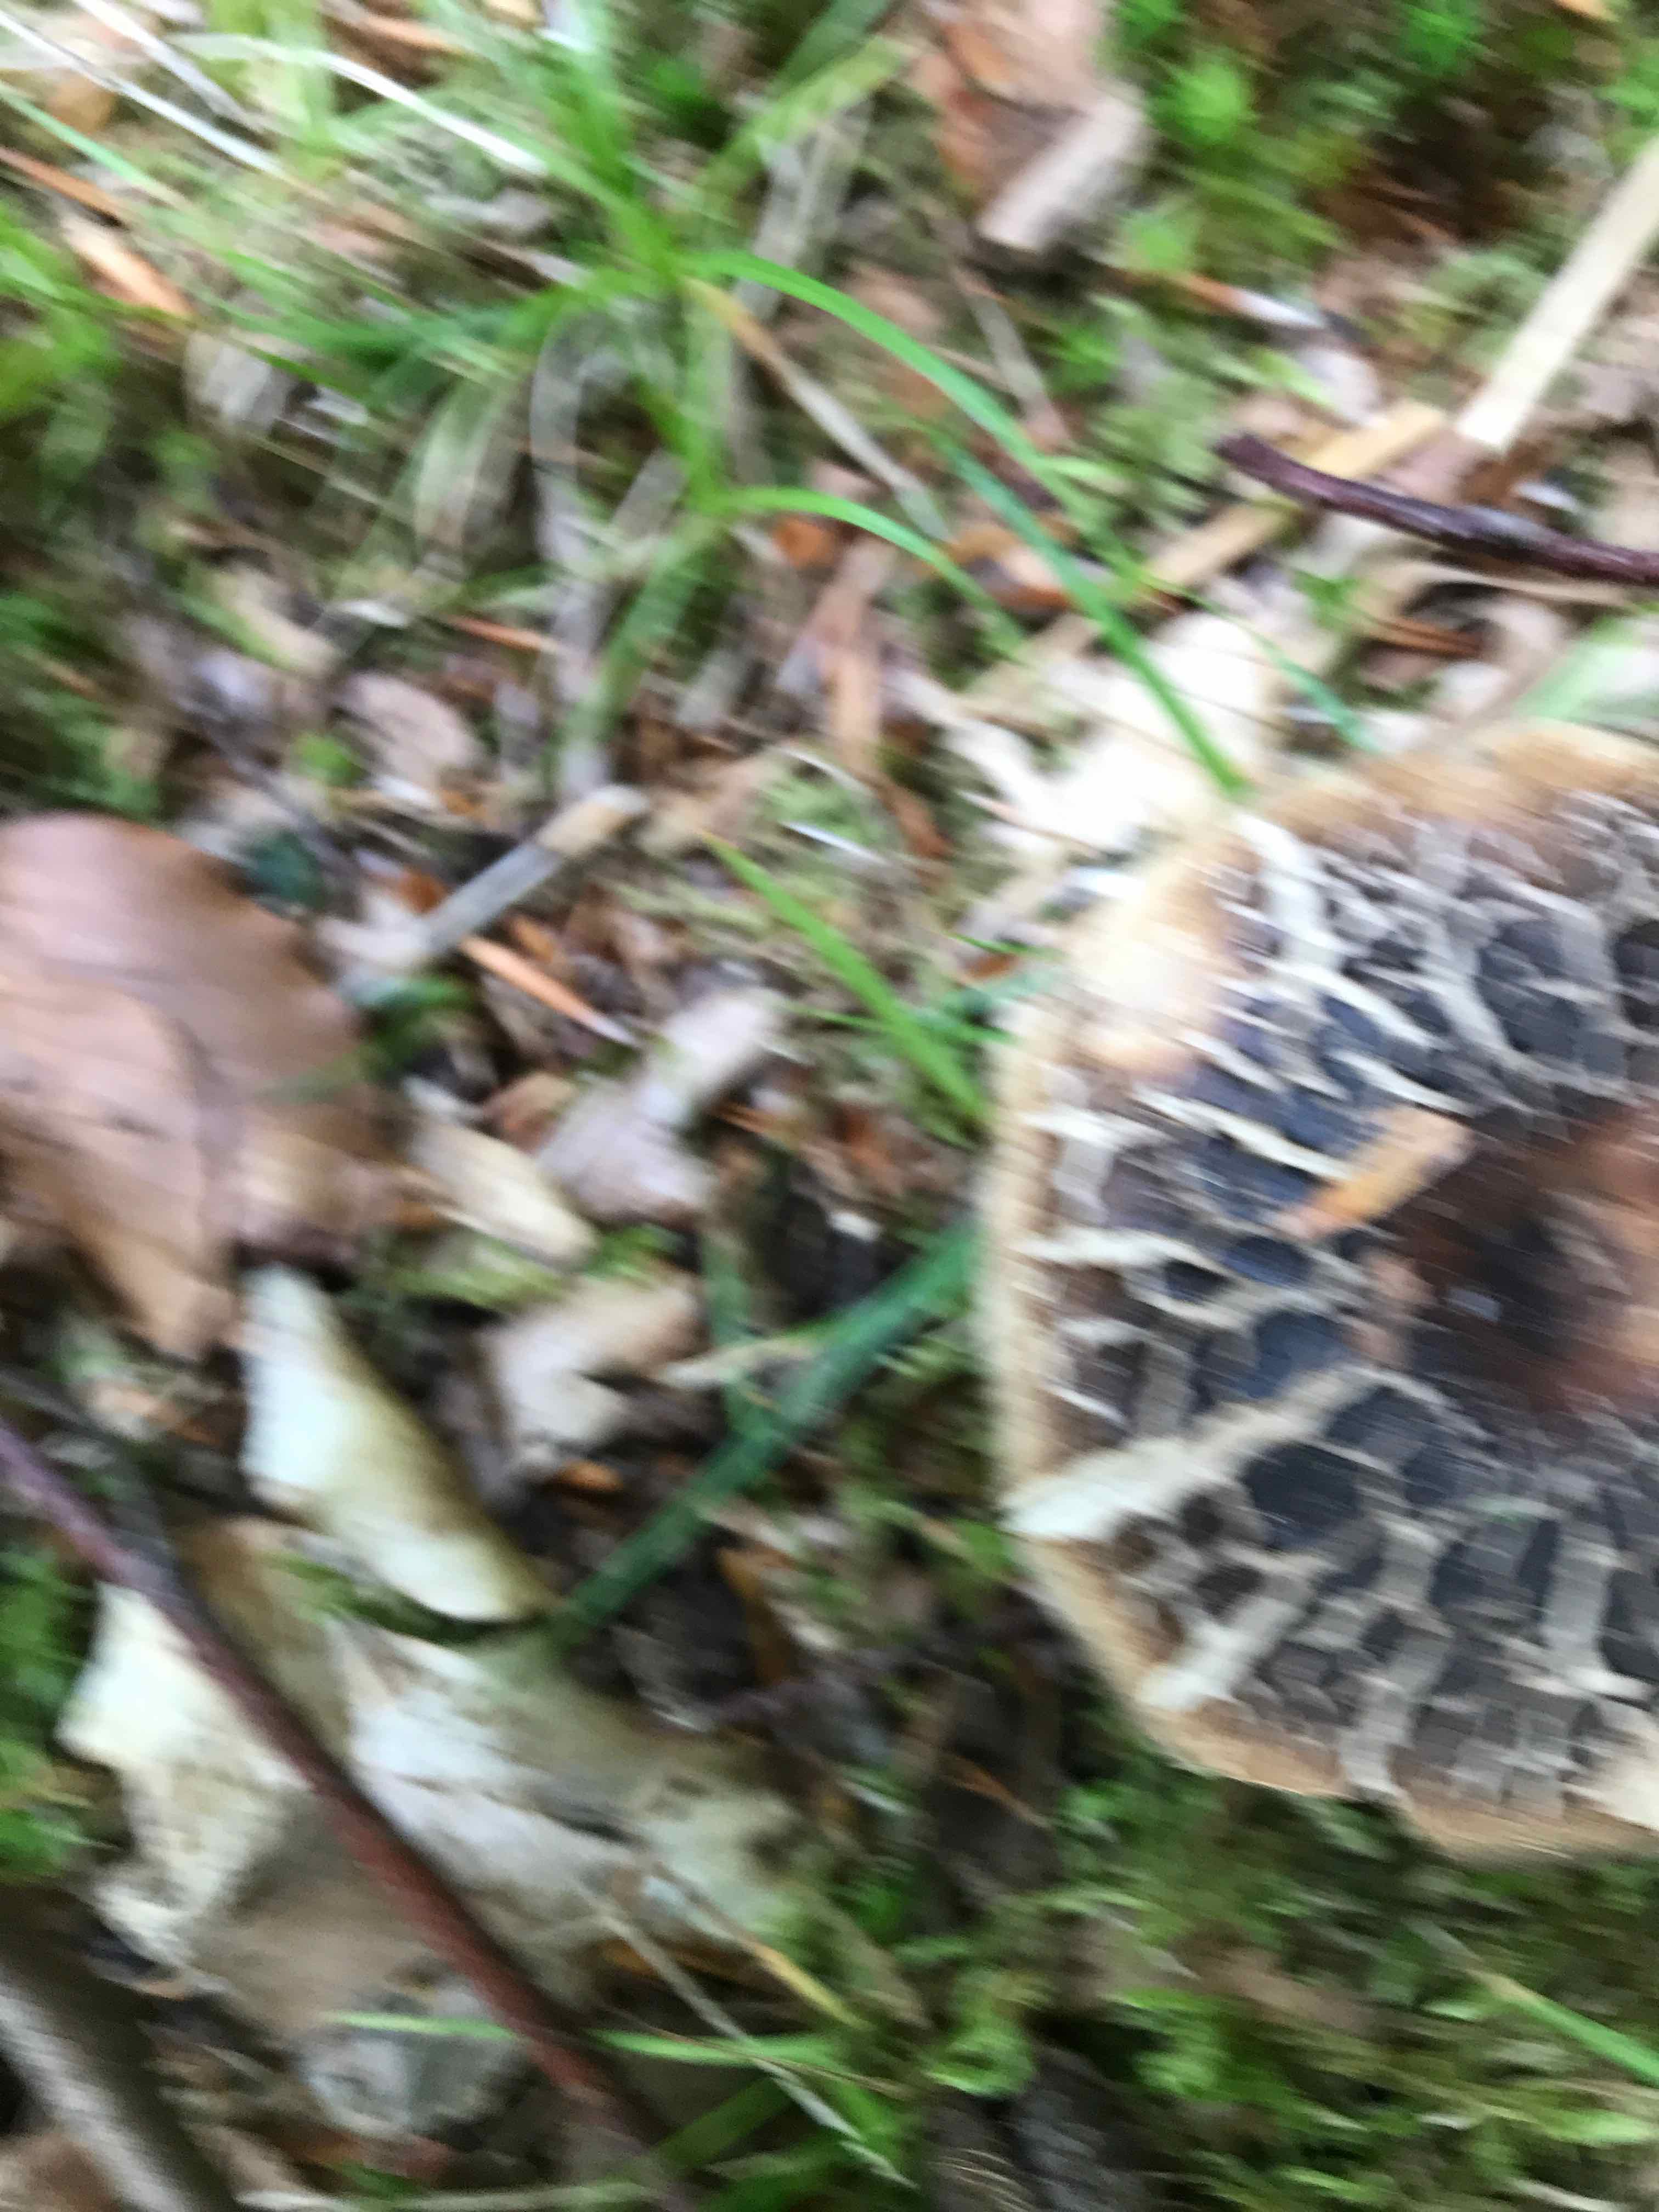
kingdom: Fungi
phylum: Basidiomycota
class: Agaricomycetes
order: Russulales
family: Russulaceae
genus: Russula
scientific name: Russula adusta
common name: sværtende skørhat
